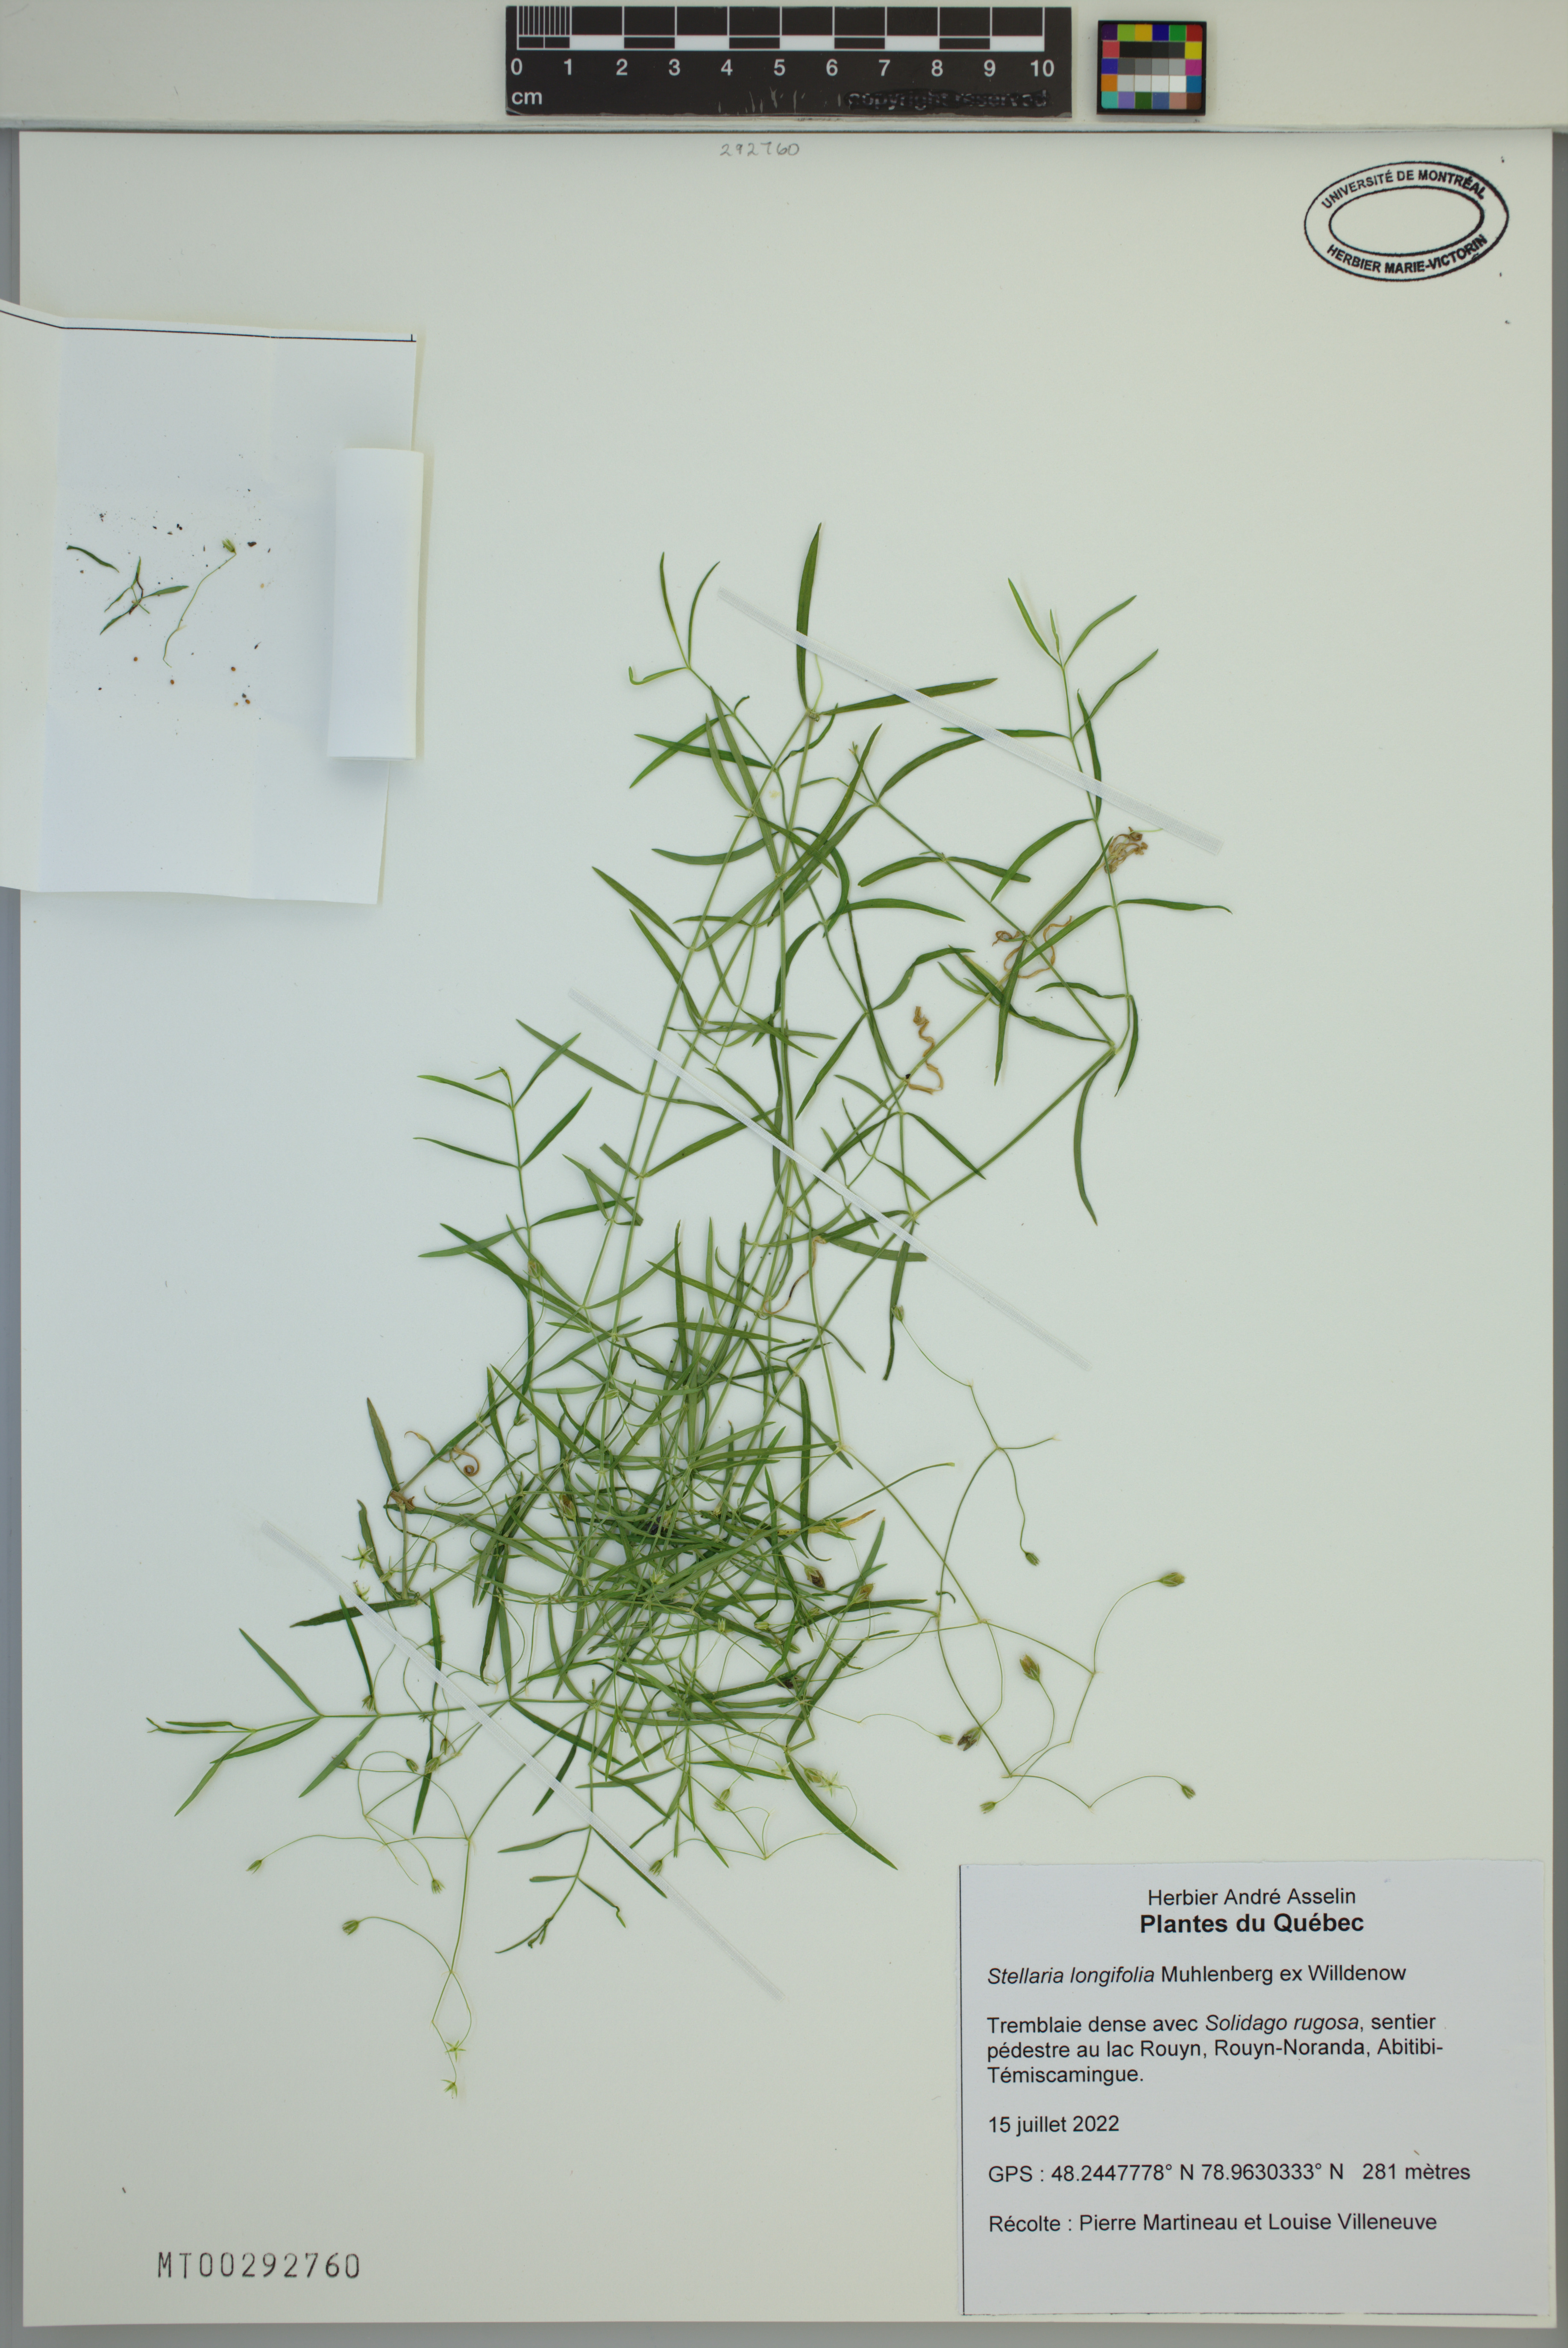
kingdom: Plantae
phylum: Tracheophyta
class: Magnoliopsida
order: Caryophyllales
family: Caryophyllaceae
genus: Stellaria
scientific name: Stellaria longifolia
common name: Long-leaved chickweed
